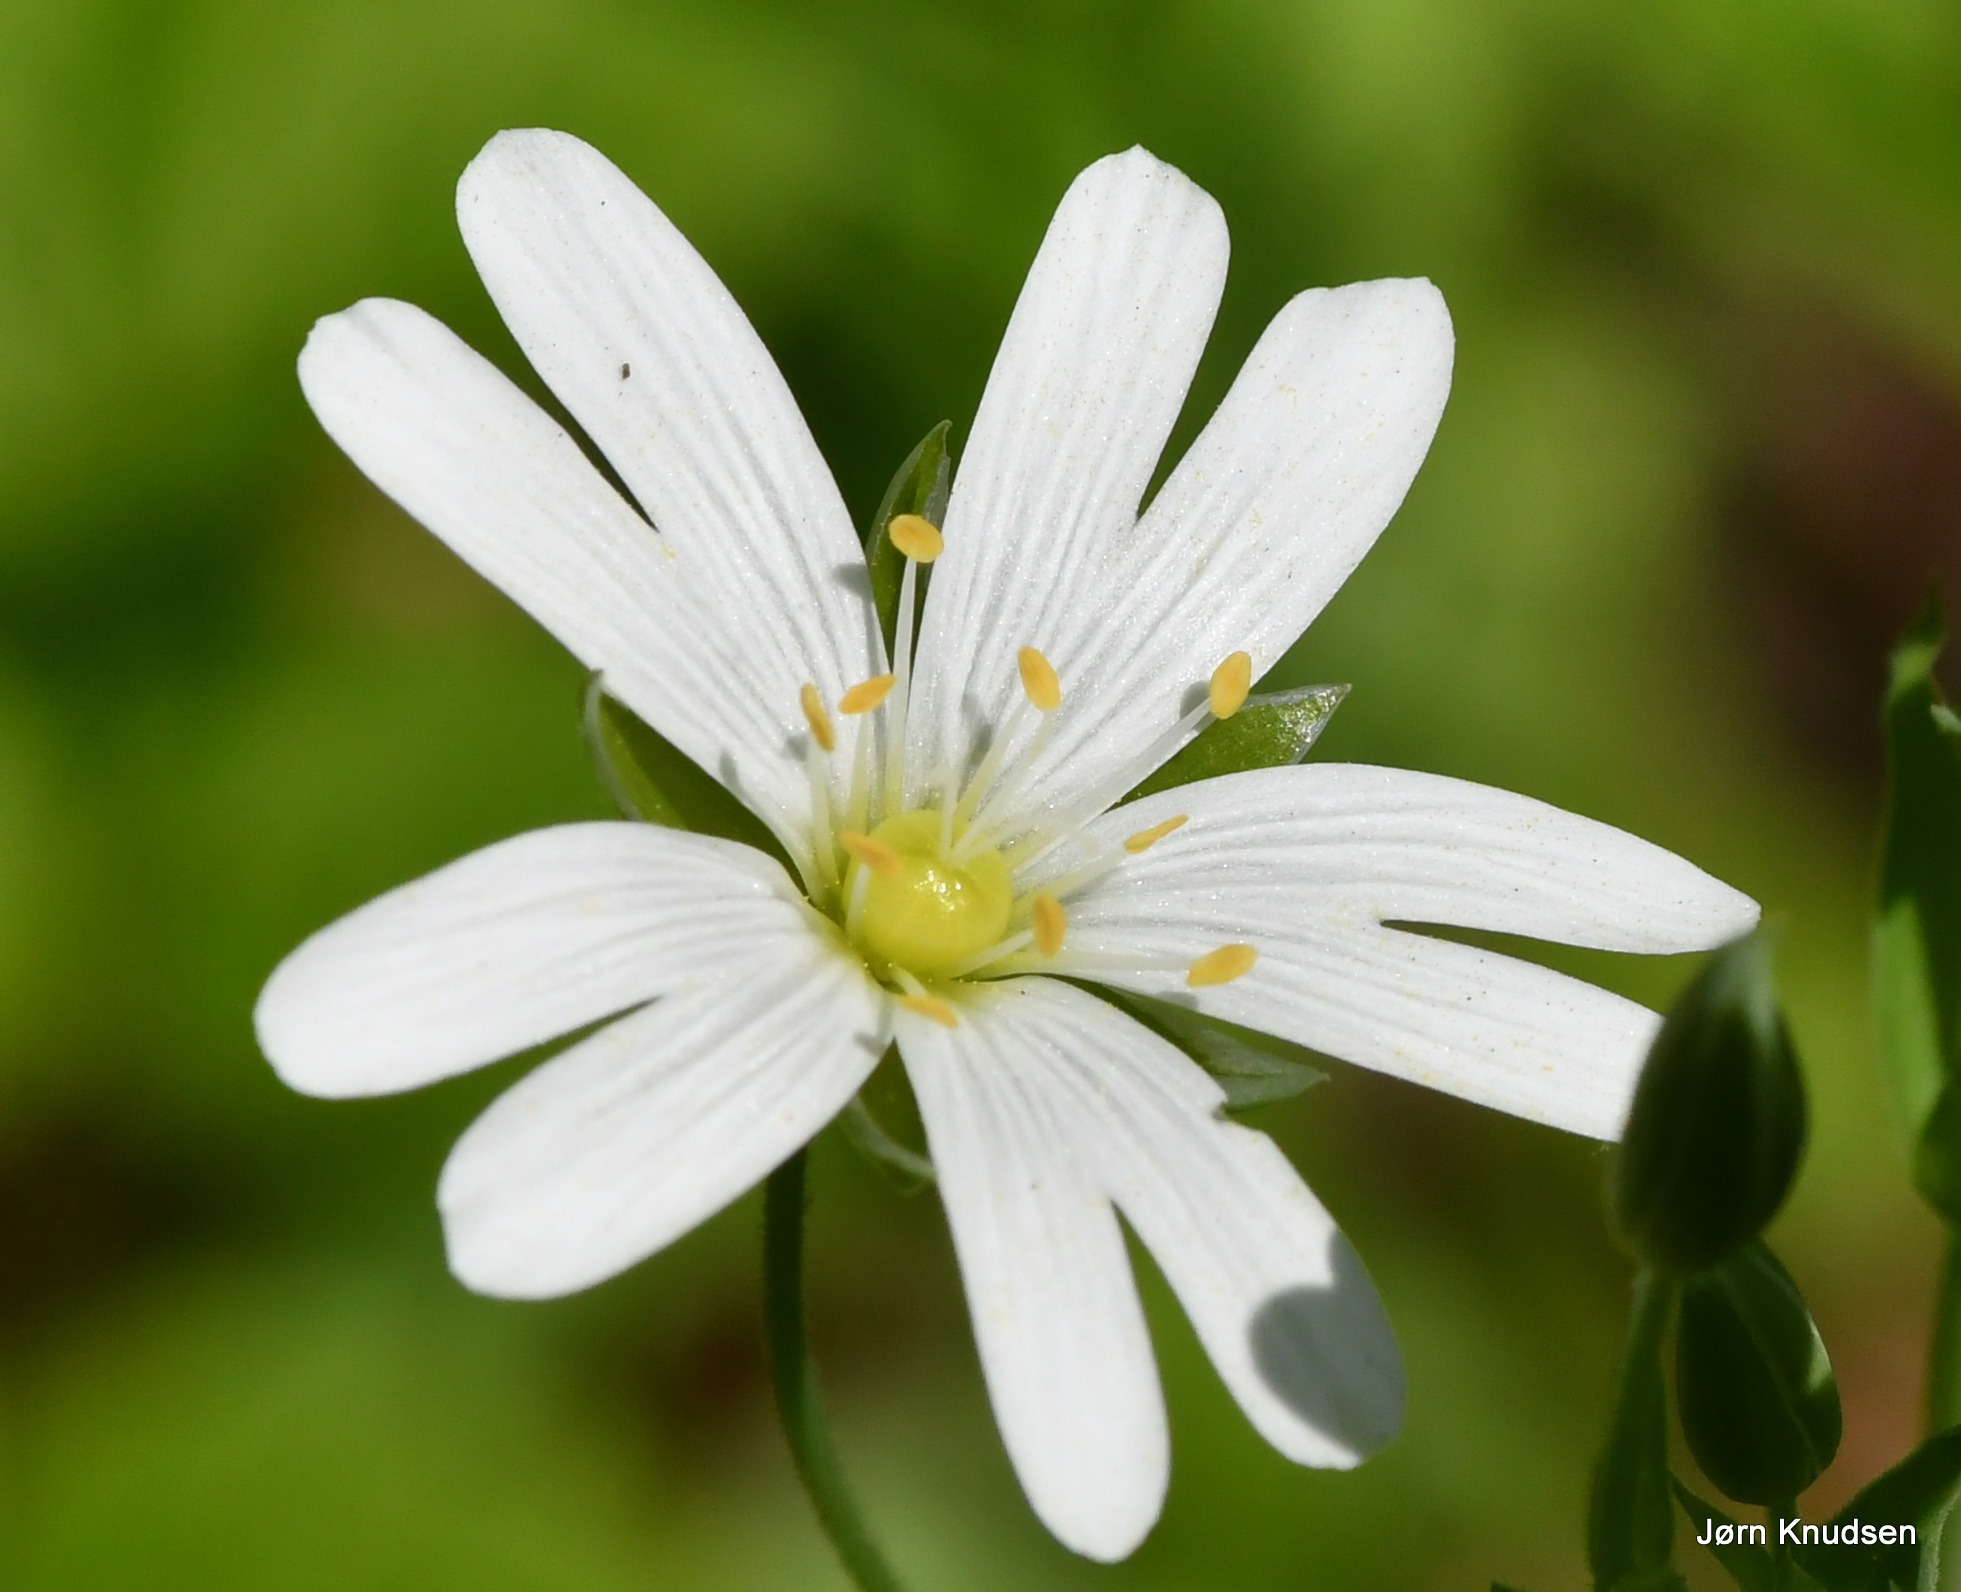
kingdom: Plantae
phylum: Tracheophyta
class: Magnoliopsida
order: Caryophyllales
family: Caryophyllaceae
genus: Rabelera
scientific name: Rabelera holostea
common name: Stor fladstjerne
